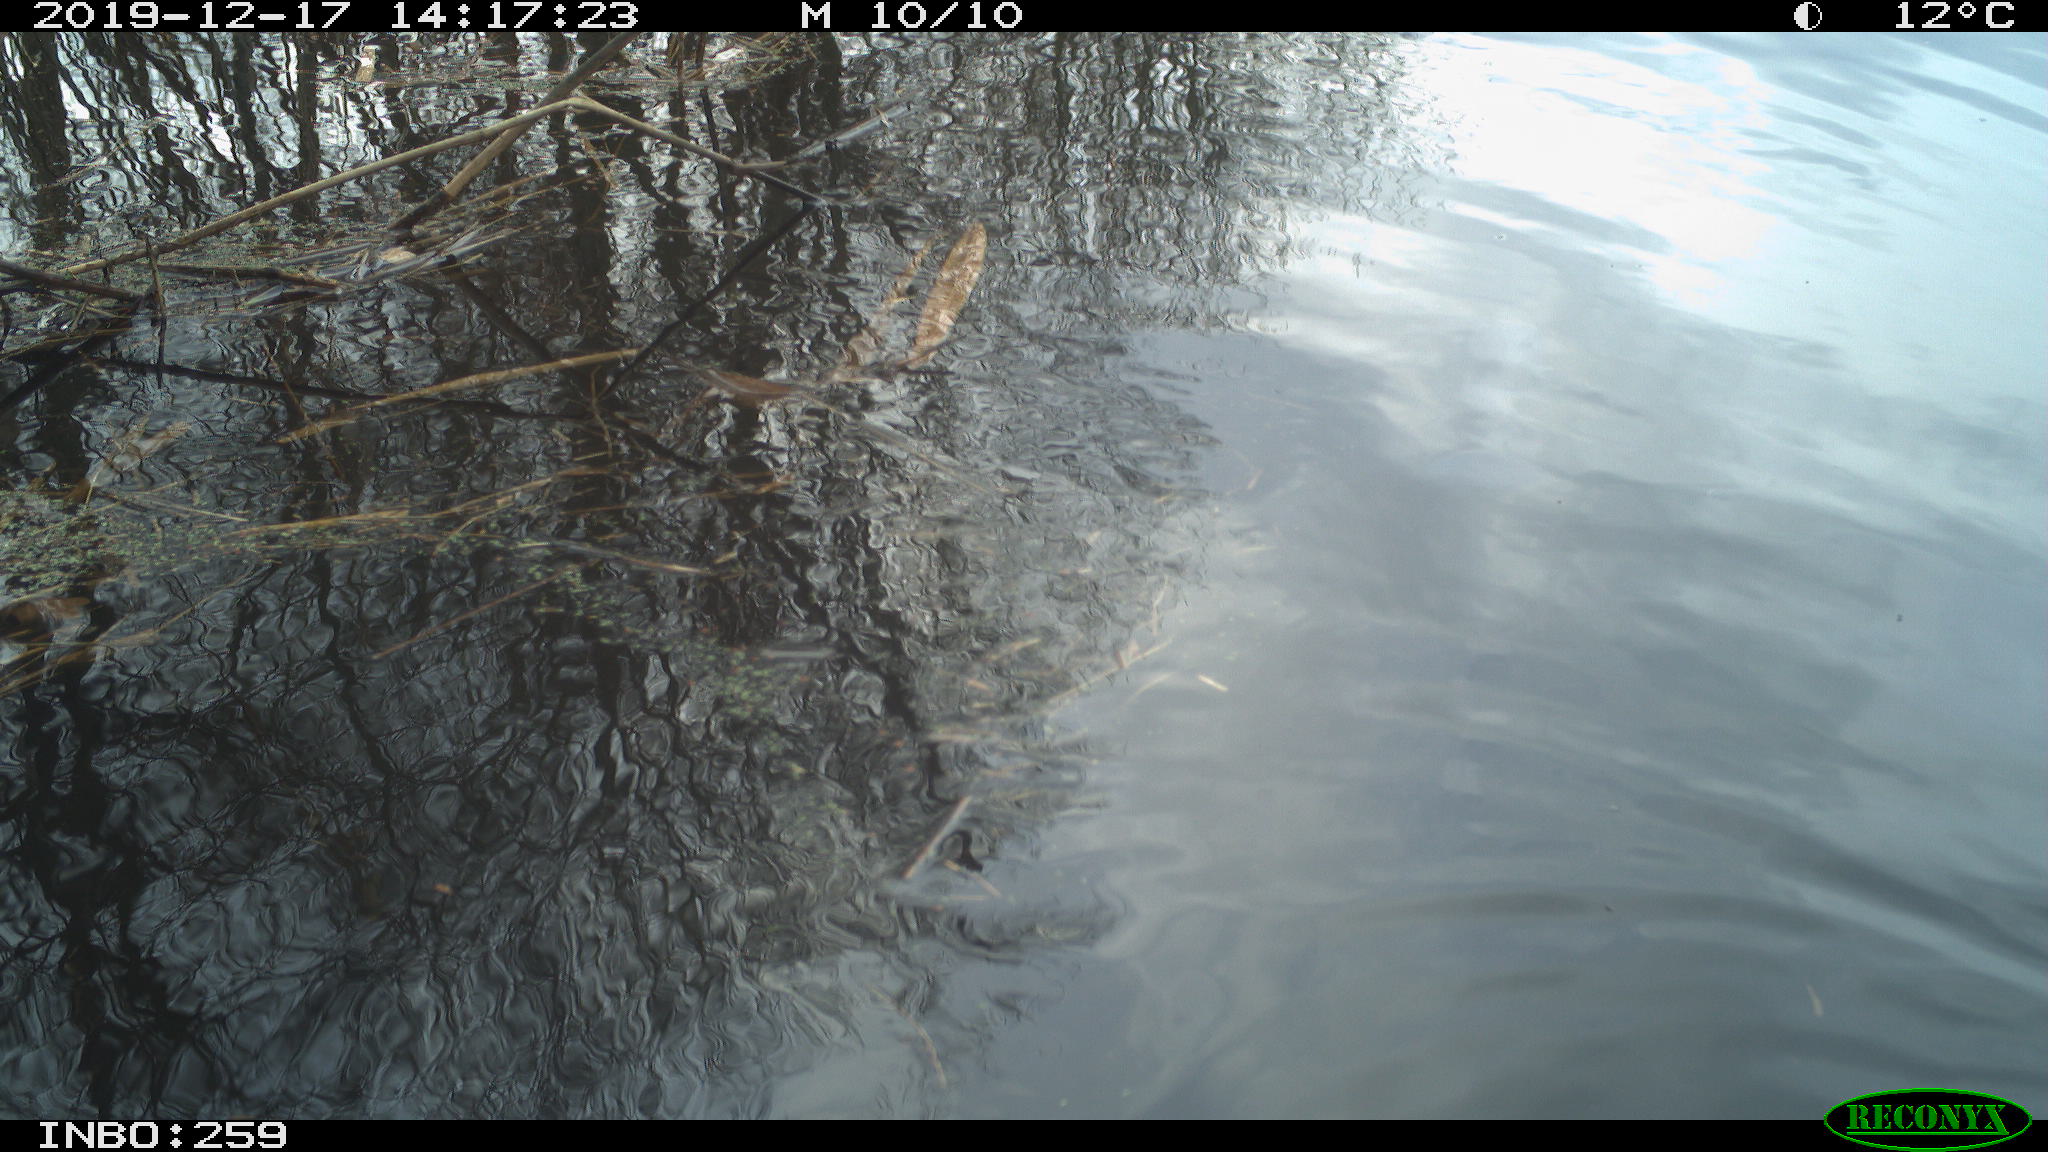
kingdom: Animalia
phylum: Chordata
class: Aves
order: Gruiformes
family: Rallidae
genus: Gallinula
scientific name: Gallinula chloropus
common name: Common moorhen
